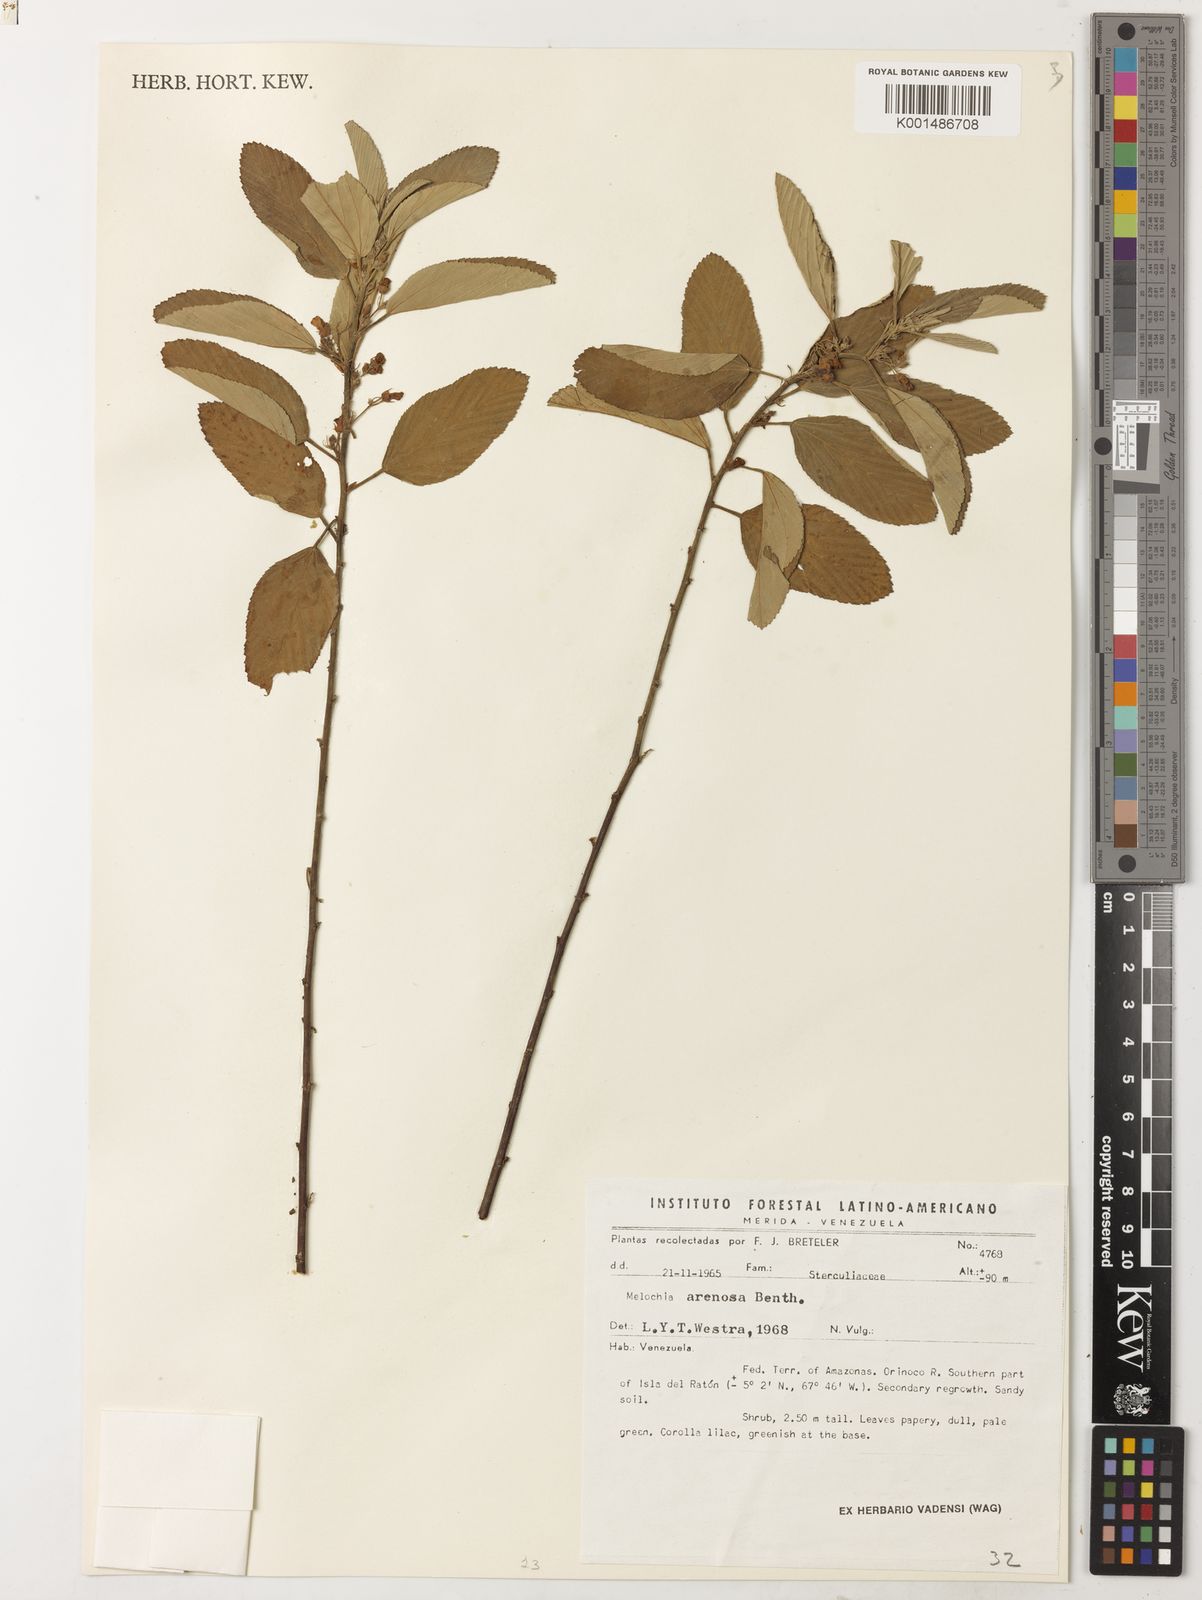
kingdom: Plantae
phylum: Tracheophyta
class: Magnoliopsida
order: Malvales
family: Malvaceae
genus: Melochia
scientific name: Melochia arenosa
